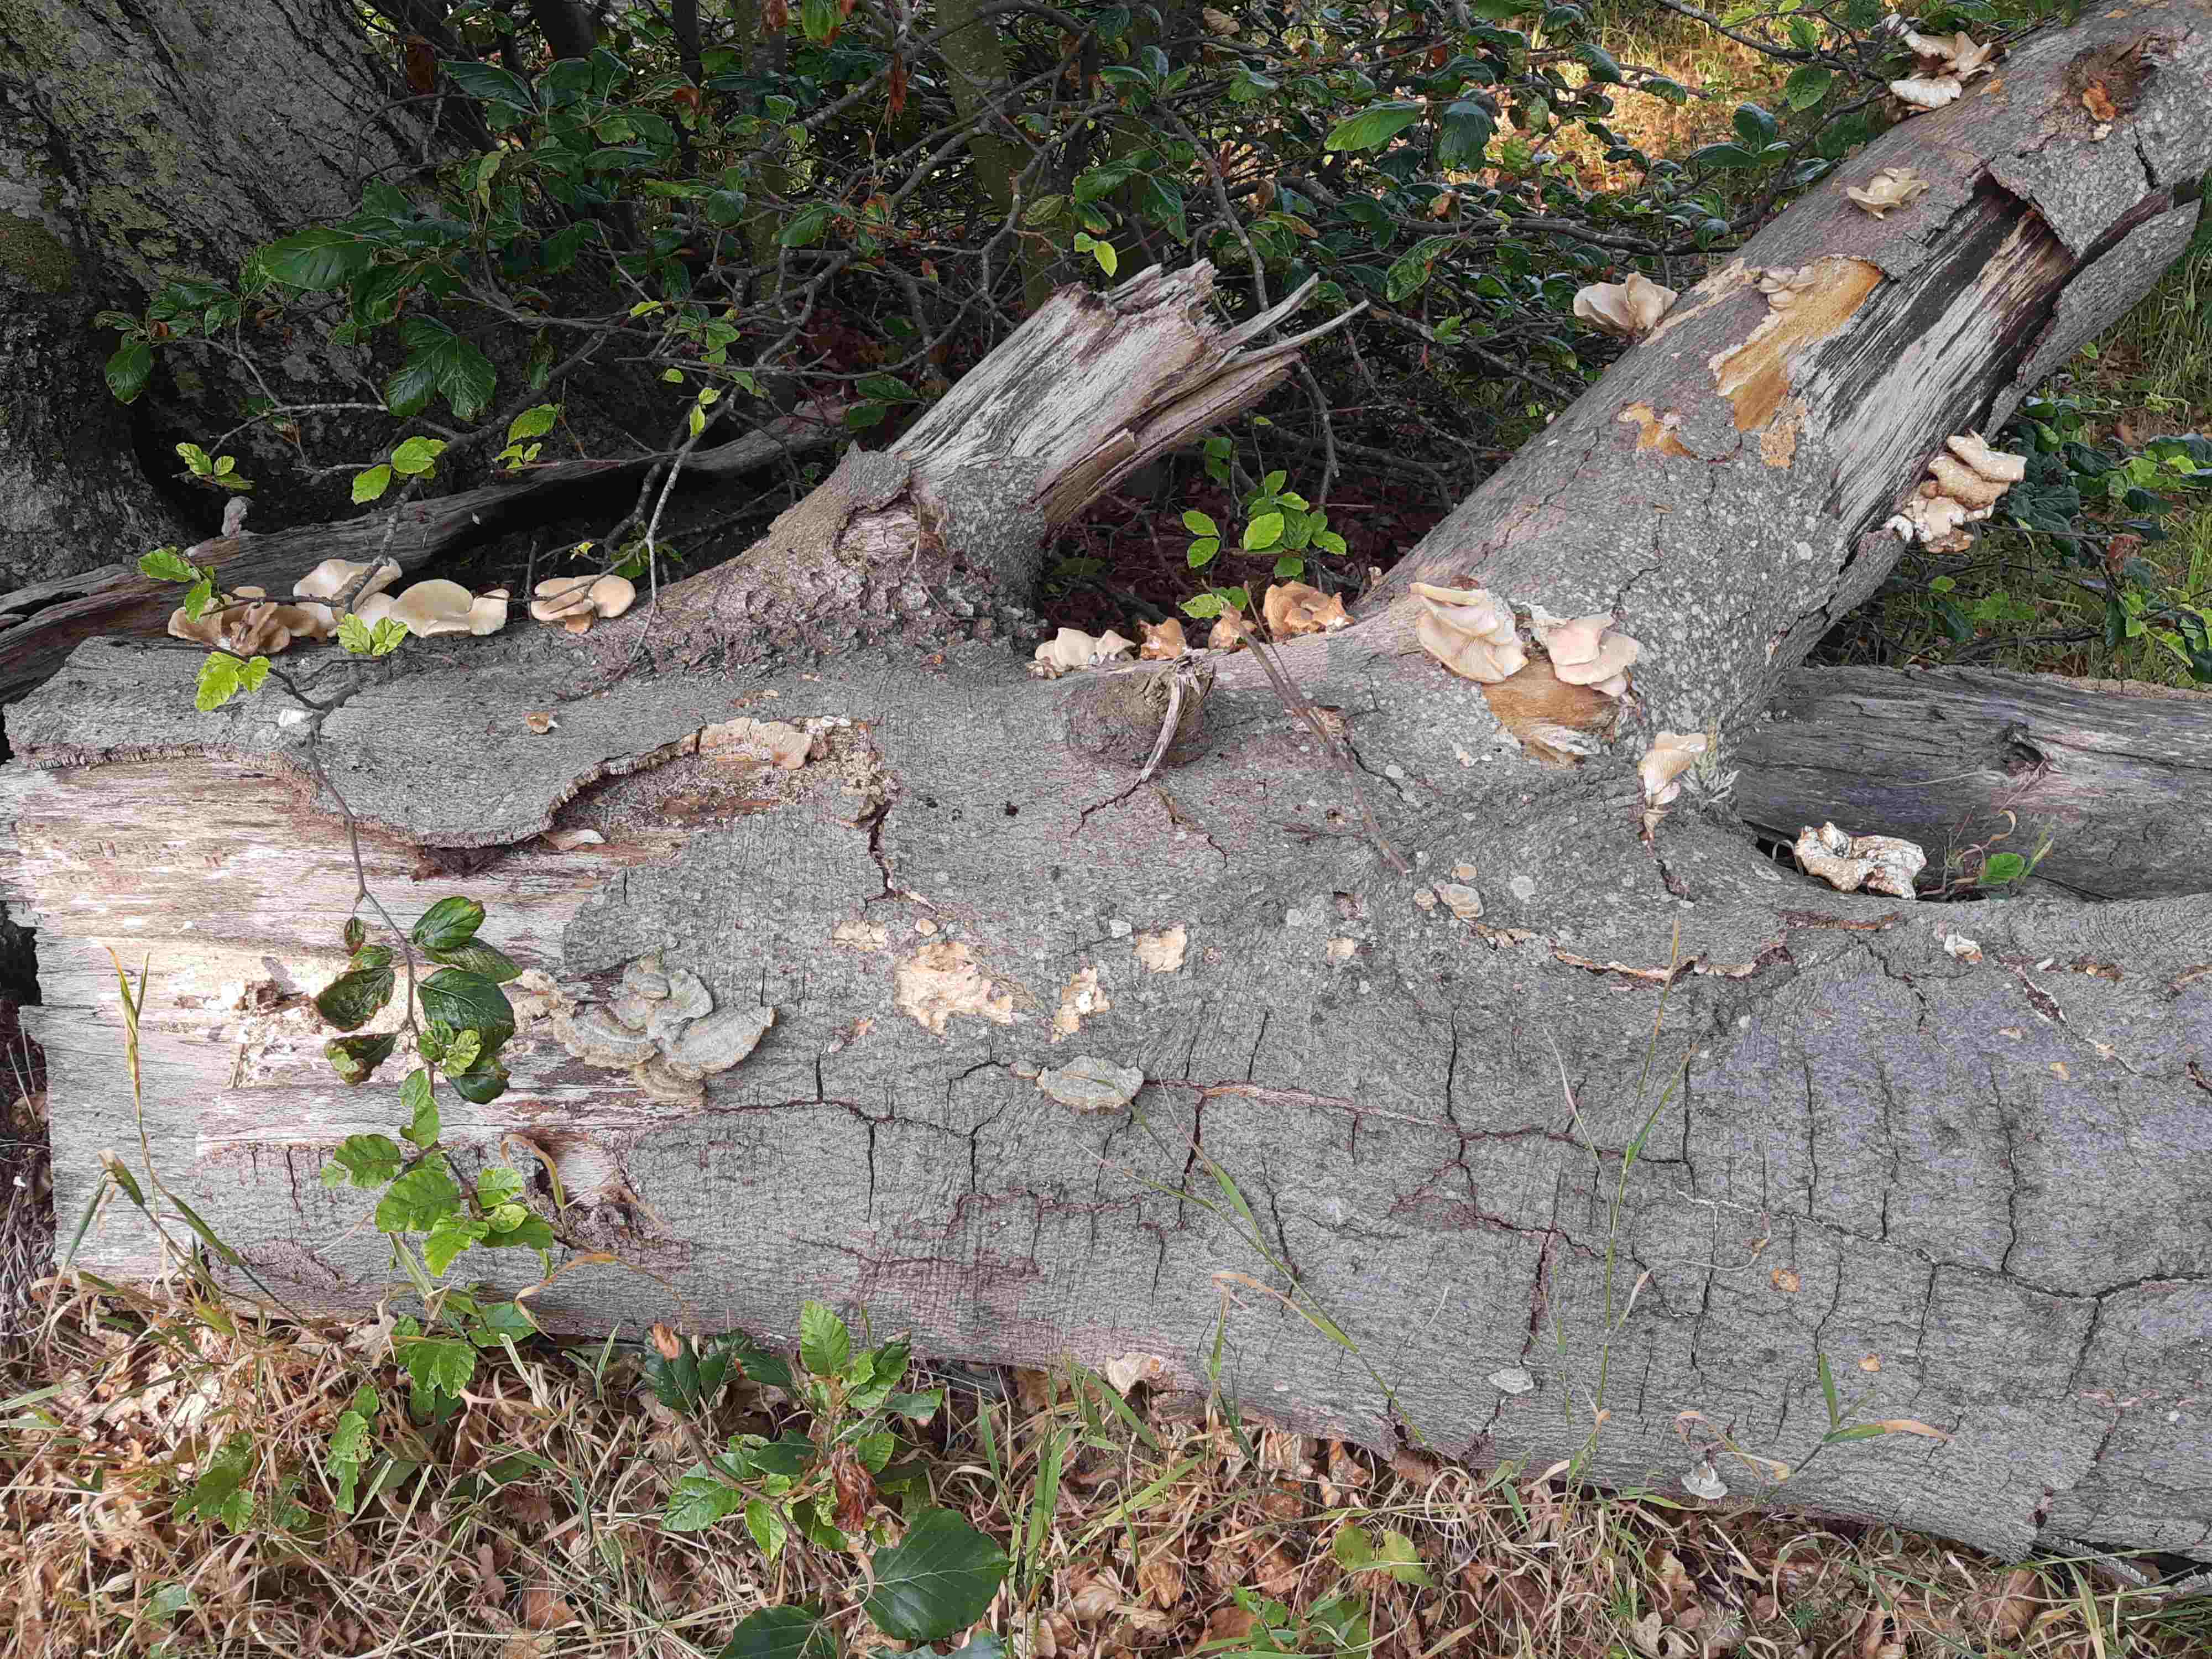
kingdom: Fungi
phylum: Basidiomycota
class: Agaricomycetes
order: Agaricales
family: Pleurotaceae
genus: Pleurotus
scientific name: Pleurotus pulmonarius
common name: sommer-østershat
